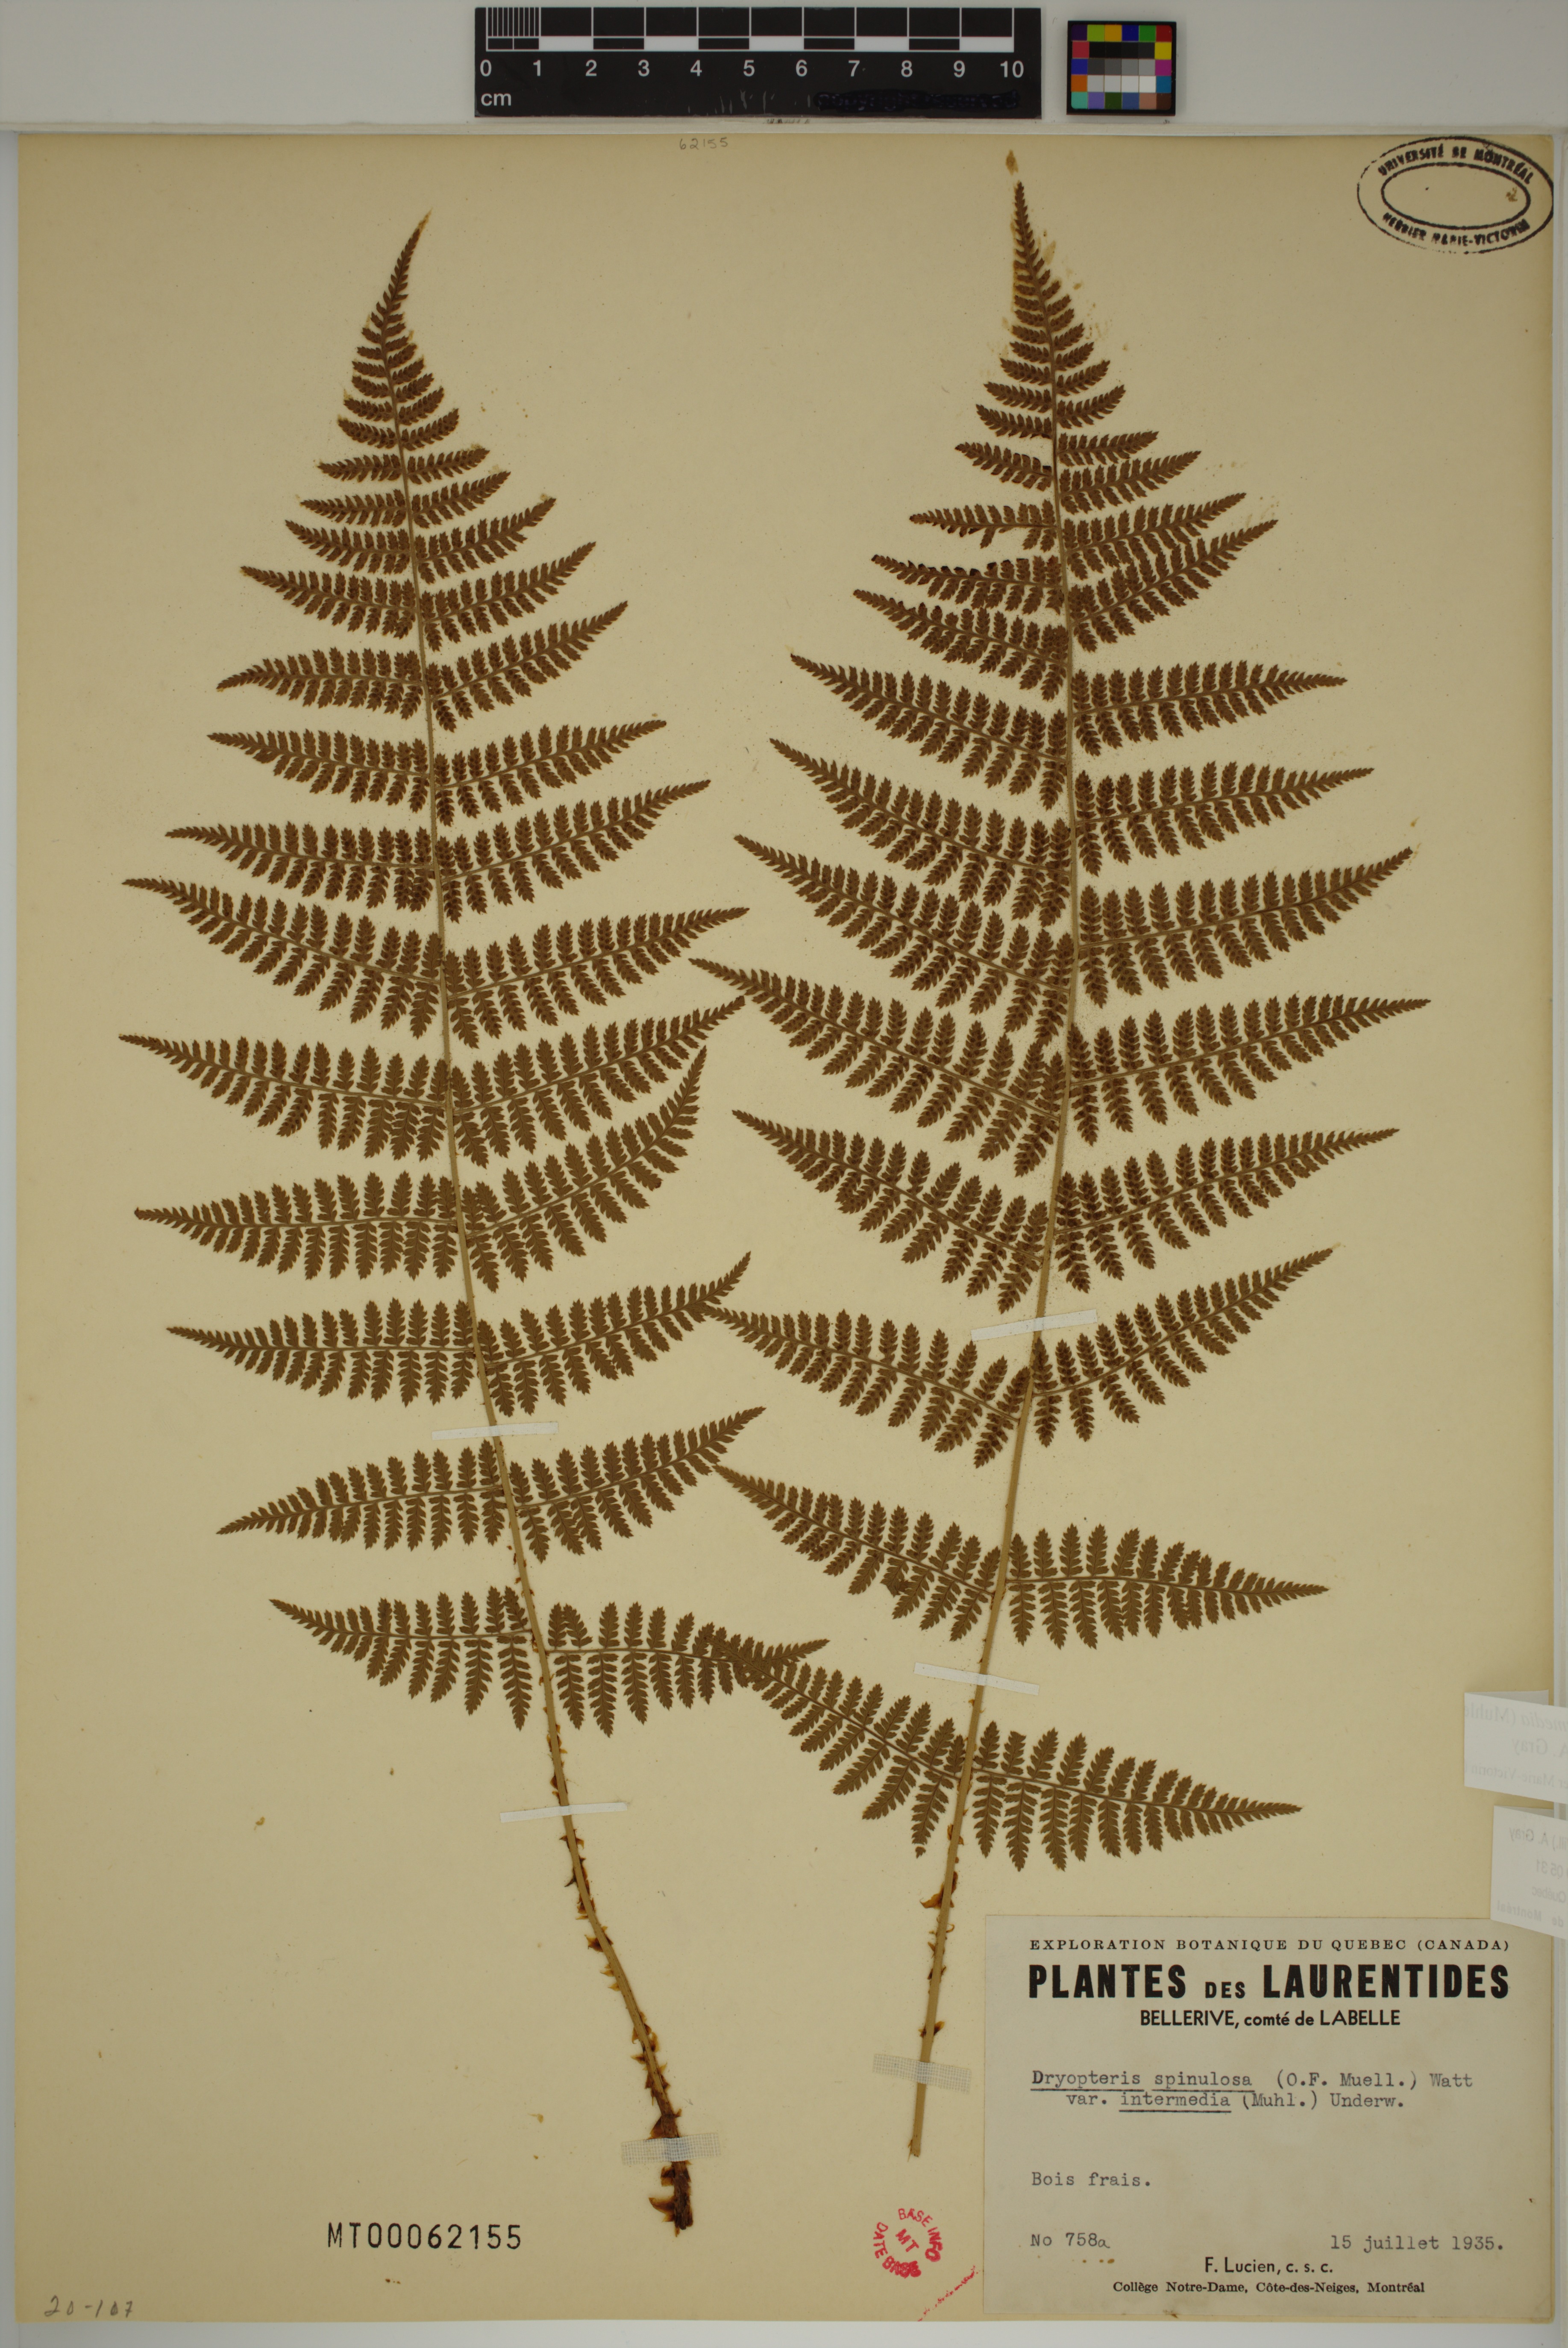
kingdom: Plantae
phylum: Tracheophyta
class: Polypodiopsida
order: Polypodiales
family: Dryopteridaceae
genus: Dryopteris
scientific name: Dryopteris intermedia
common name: Evergreen wood fern
